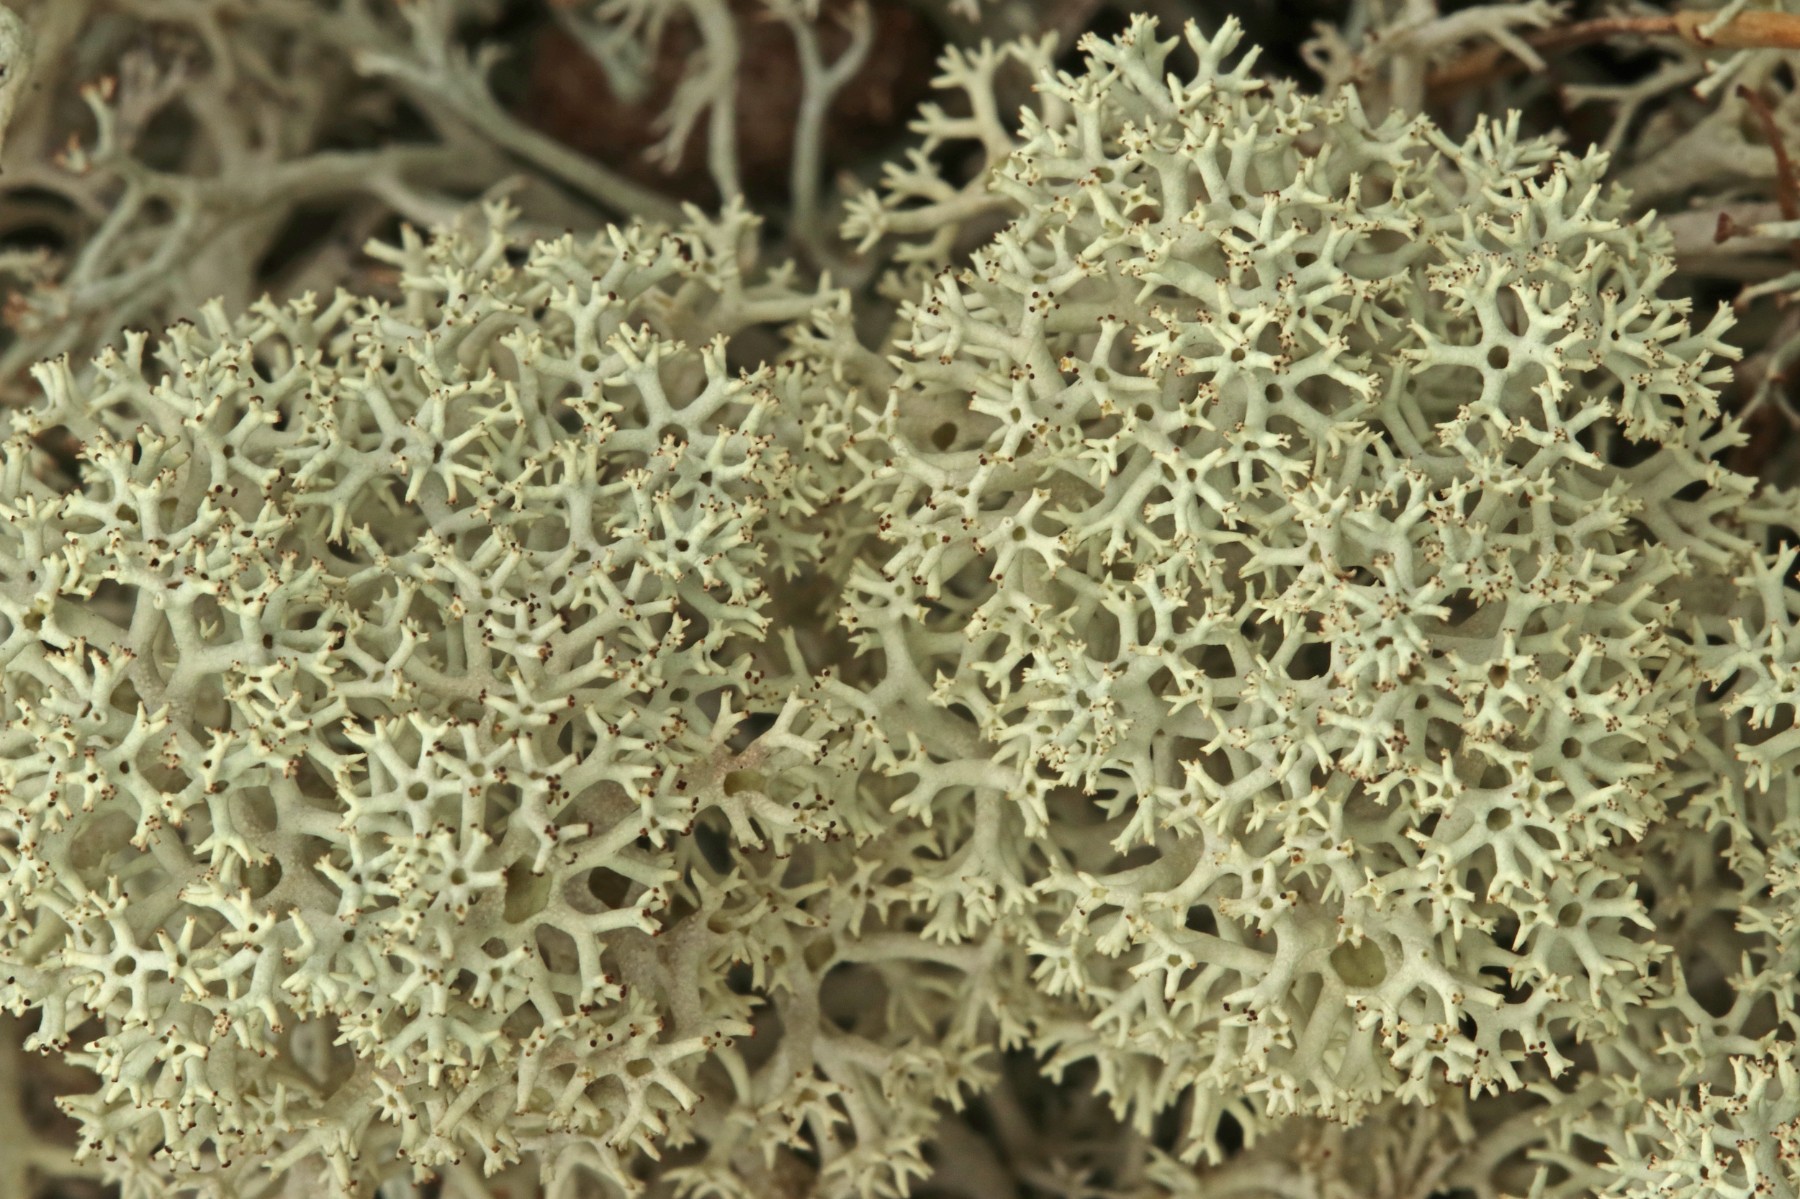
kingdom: Fungi
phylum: Ascomycota
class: Lecanoromycetes
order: Lecanorales
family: Cladoniaceae
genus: Cladonia
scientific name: Cladonia stellaris
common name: stjerne-rensdyrlav
